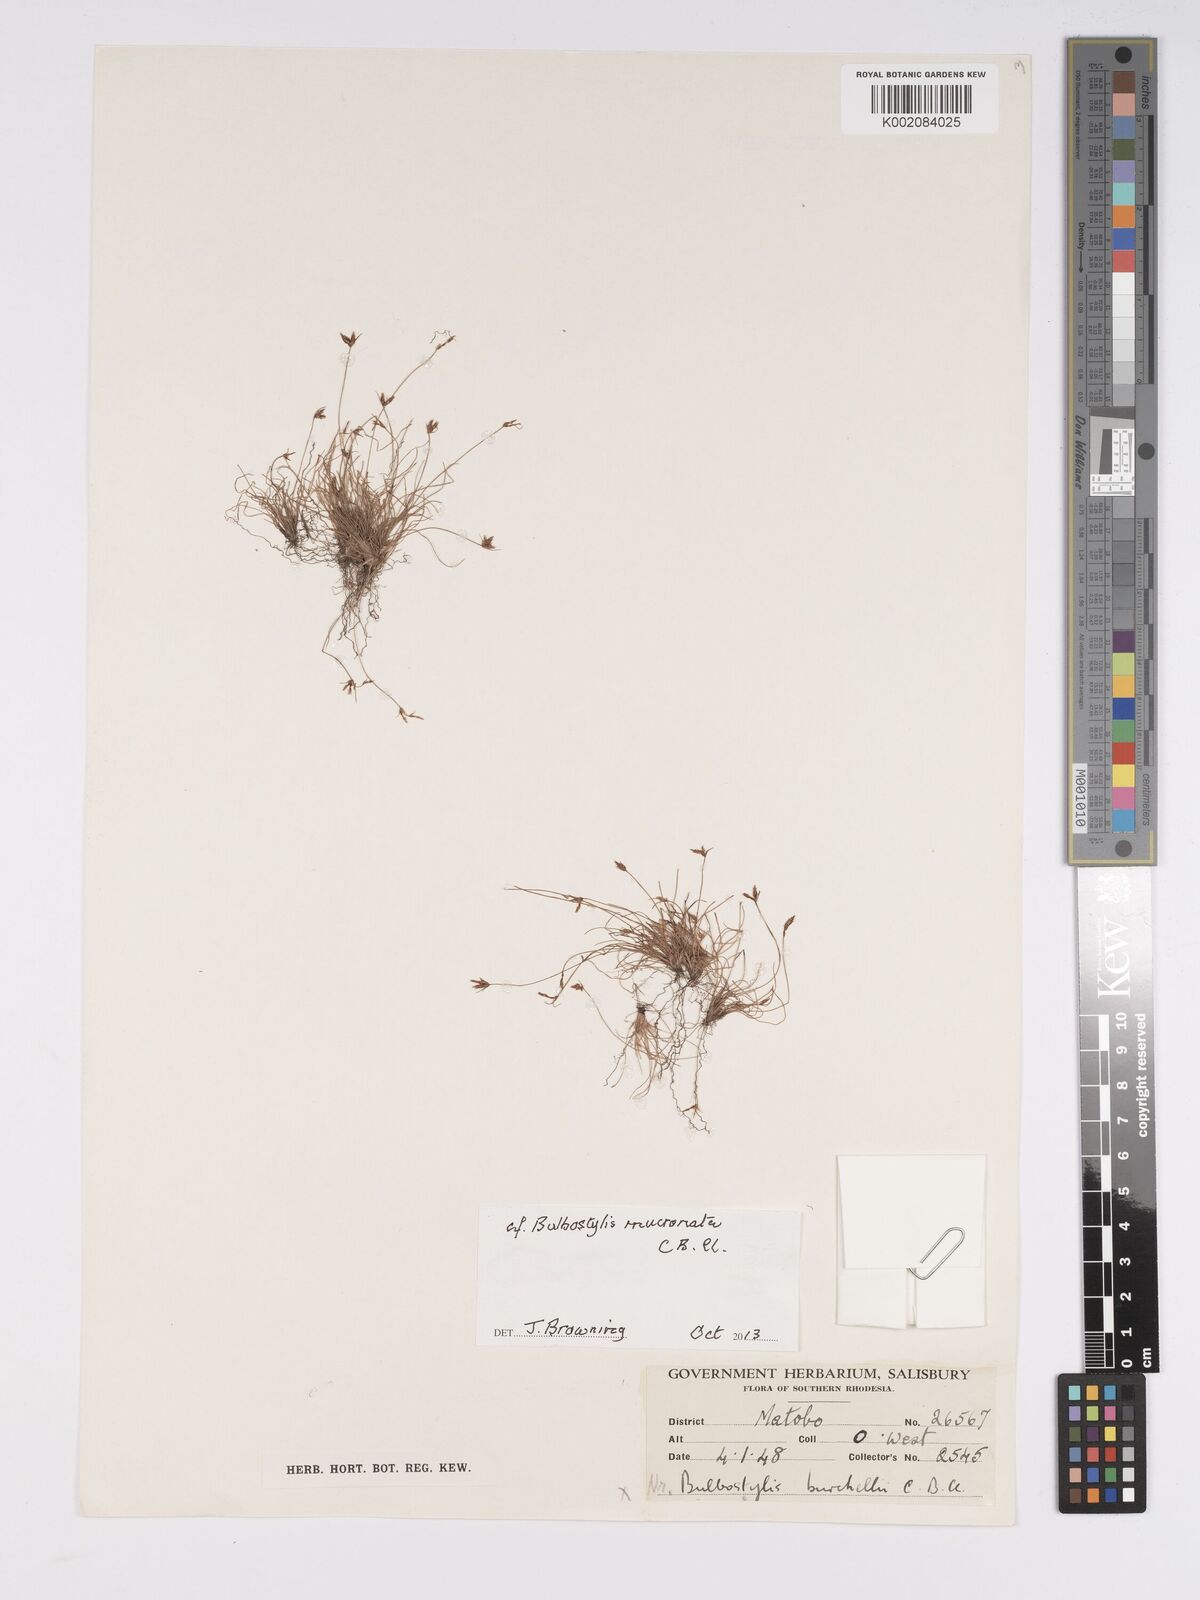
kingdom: Plantae
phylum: Tracheophyta
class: Liliopsida
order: Poales
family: Cyperaceae
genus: Bulbostylis
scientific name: Bulbostylis mucronata
